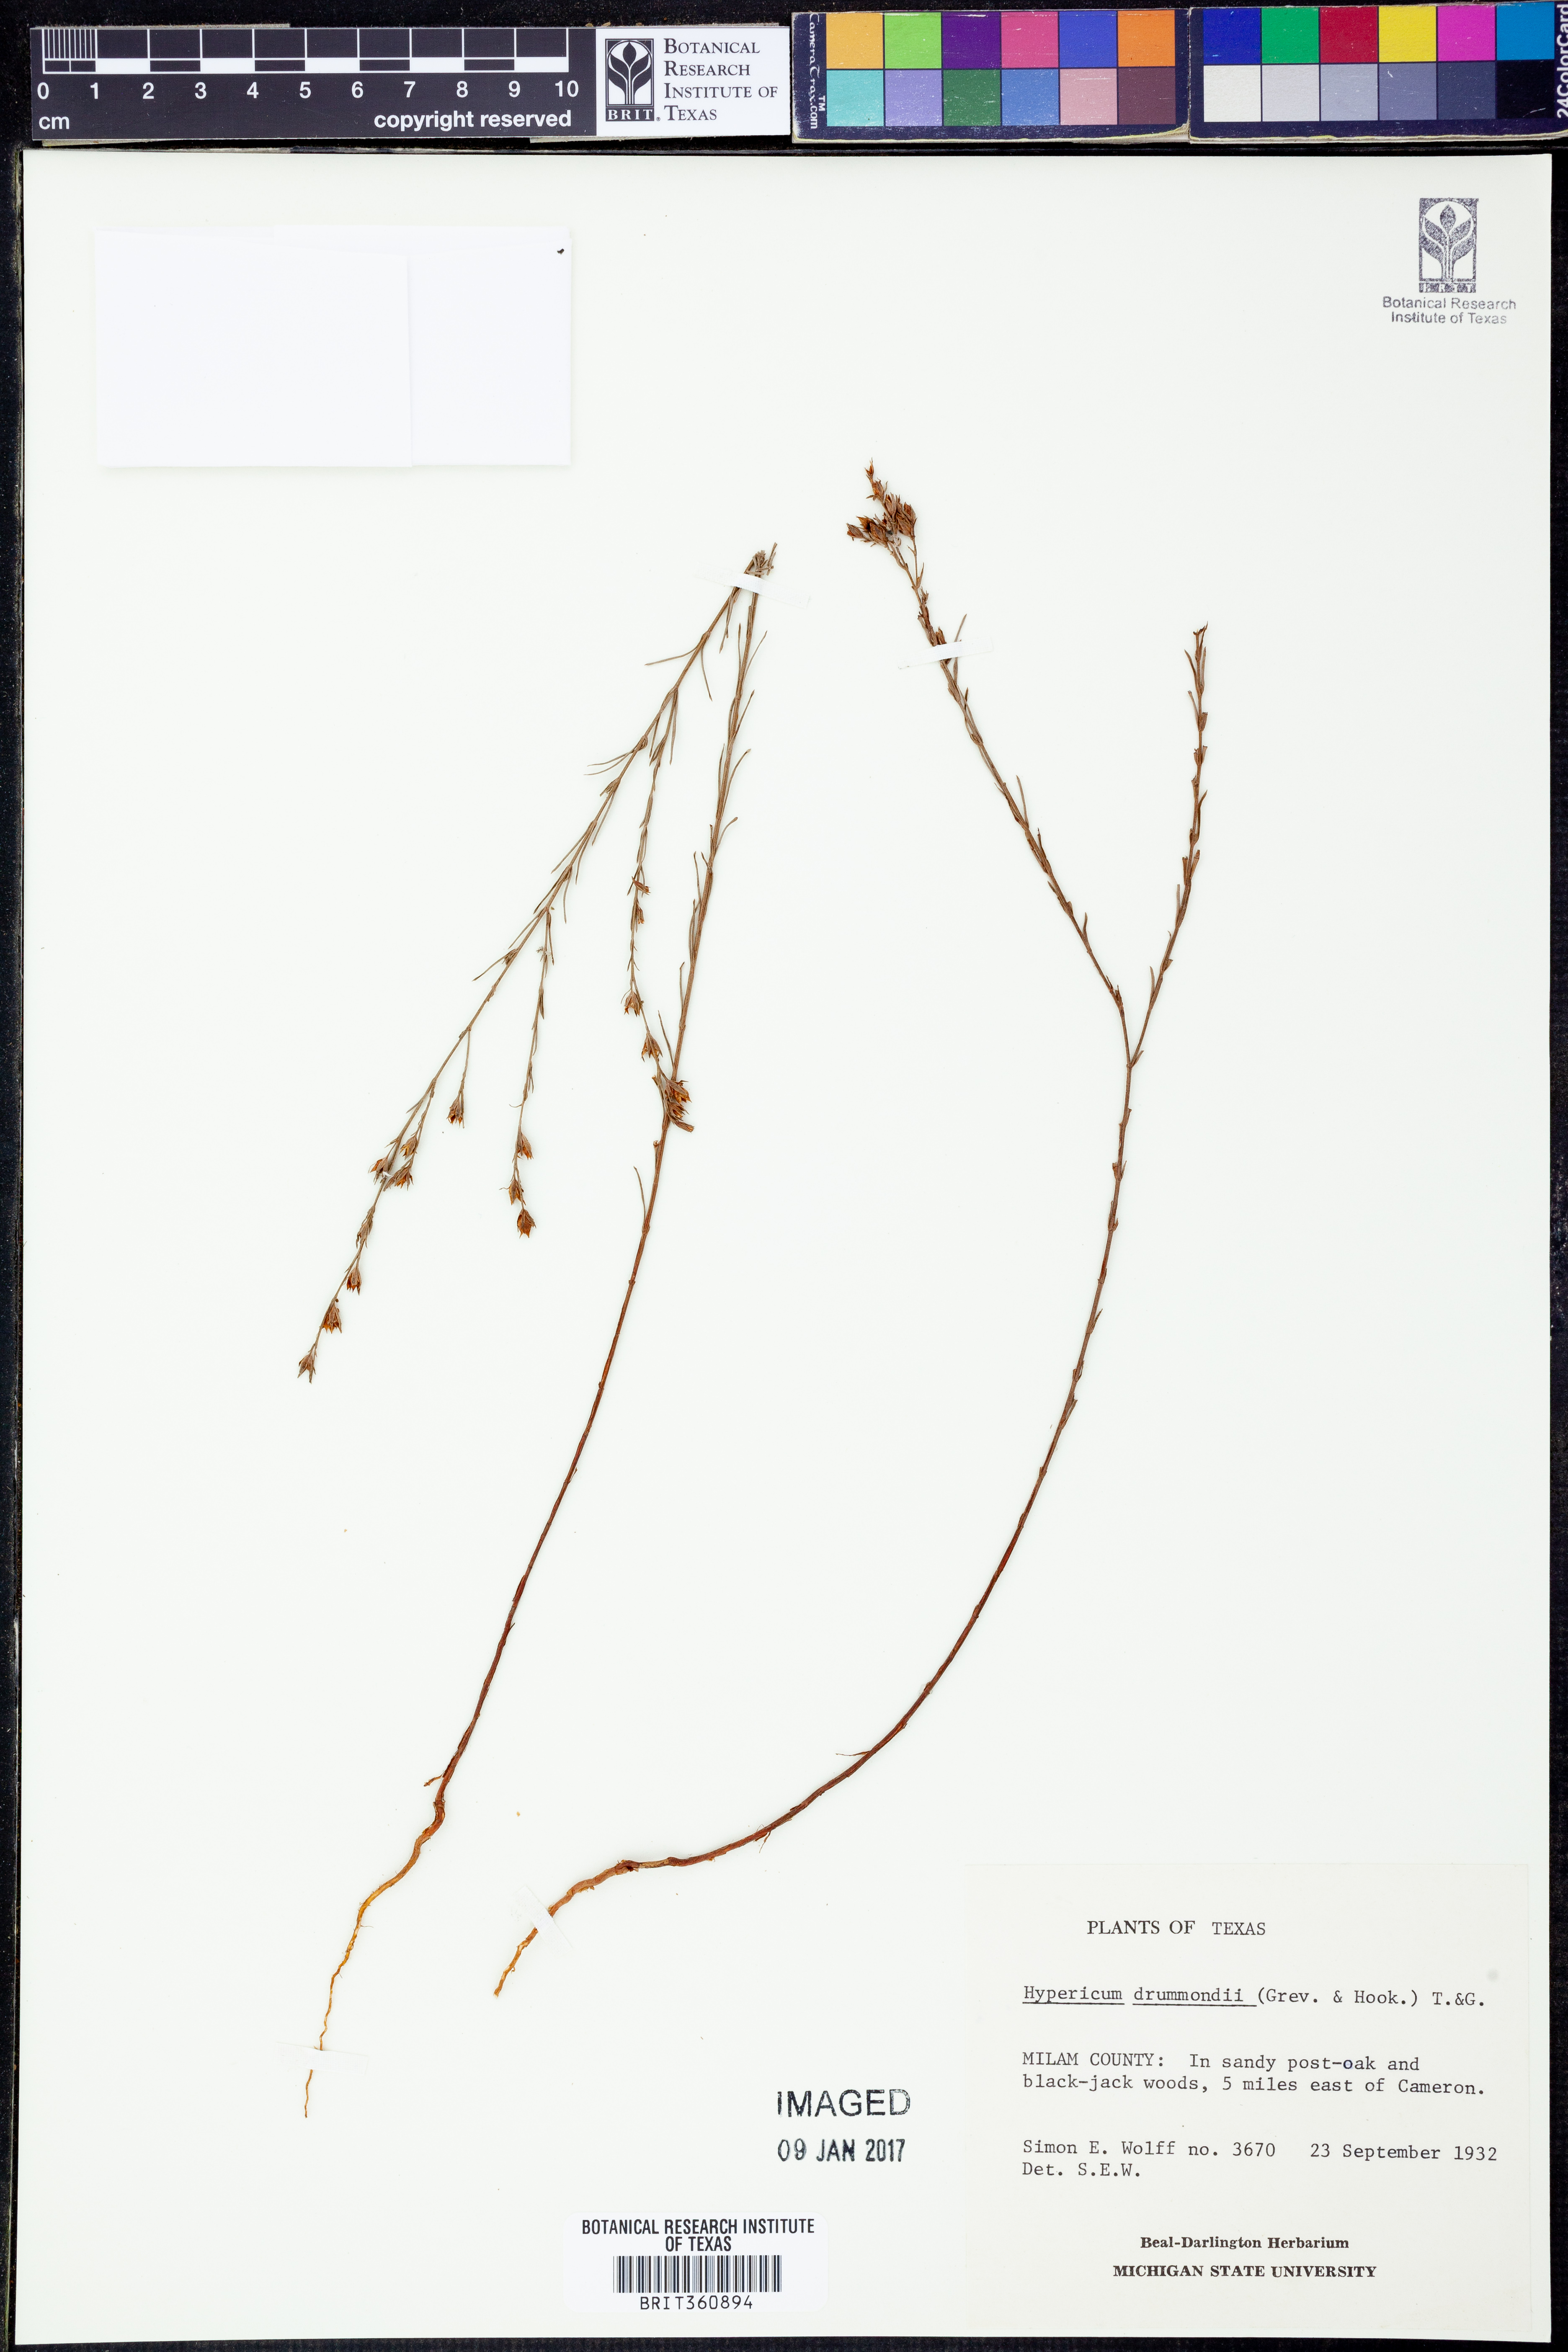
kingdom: Plantae
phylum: Tracheophyta
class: Magnoliopsida
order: Malpighiales
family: Hypericaceae
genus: Hypericum
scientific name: Hypericum drummondii
